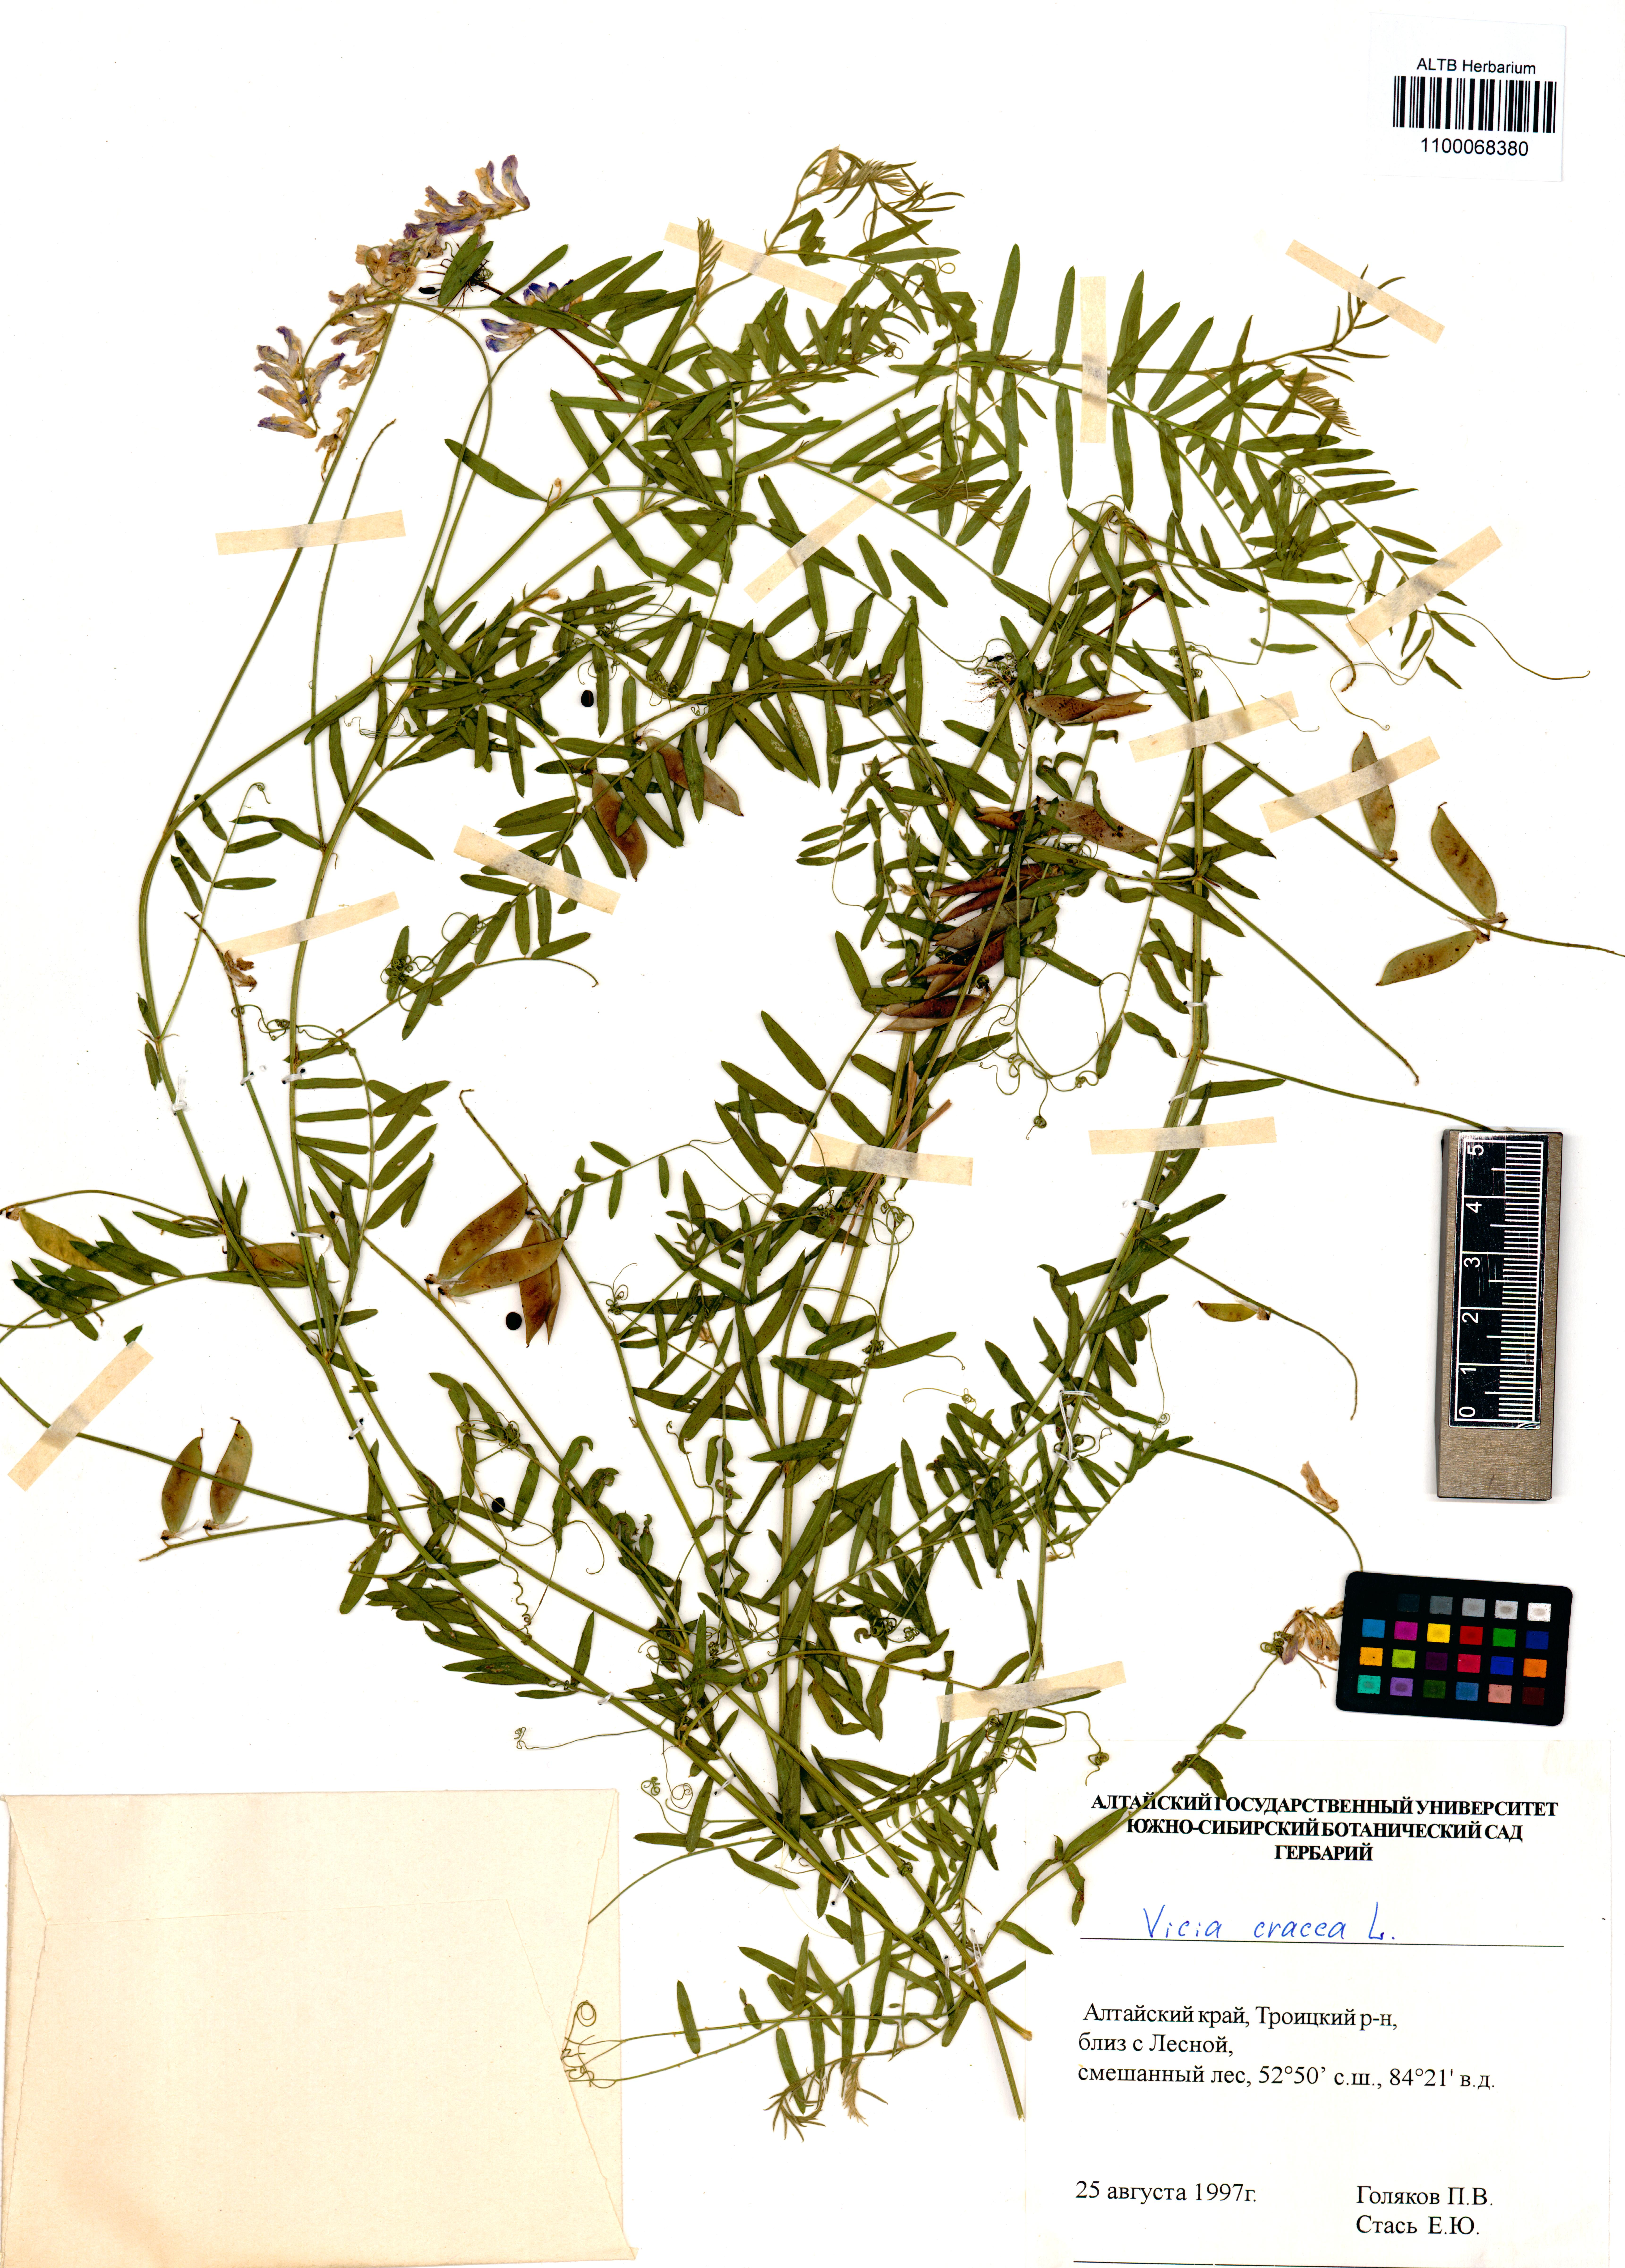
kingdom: Plantae
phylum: Tracheophyta
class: Magnoliopsida
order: Fabales
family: Fabaceae
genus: Vicia
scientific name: Vicia cracca
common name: Bird vetch
